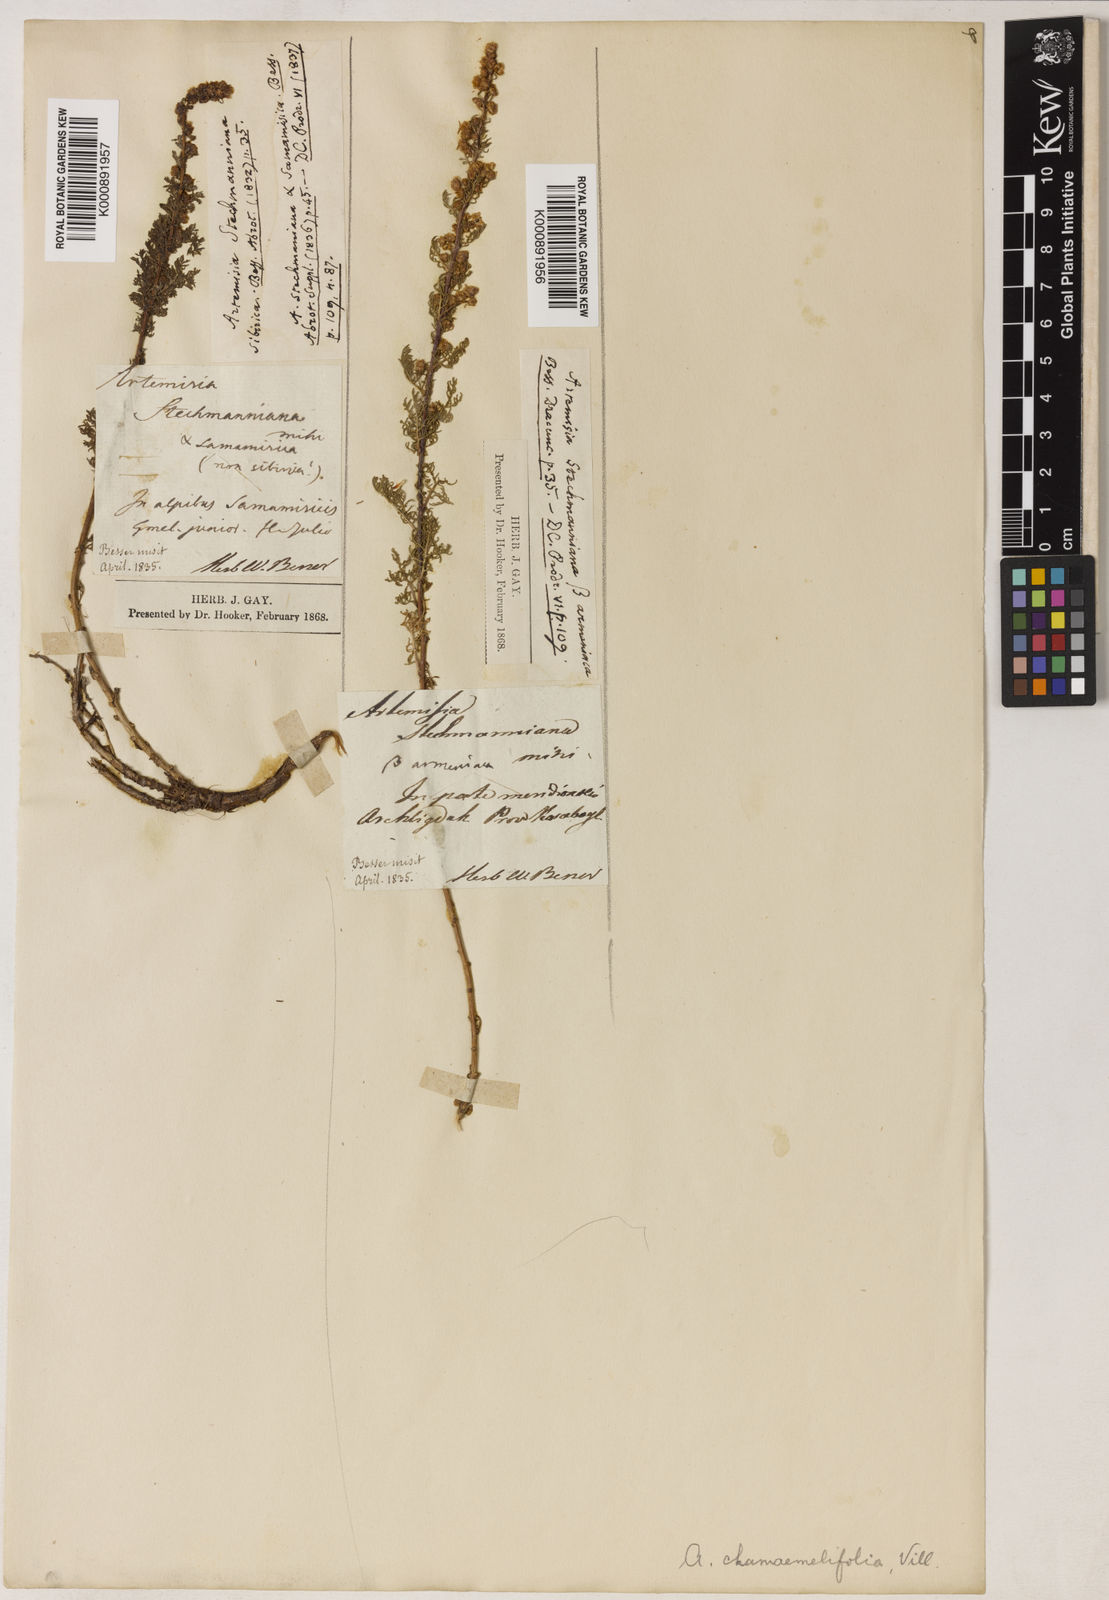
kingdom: Plantae
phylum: Tracheophyta
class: Magnoliopsida
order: Asterales
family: Asteraceae
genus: Artemisia
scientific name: Artemisia chamaemelifolia
